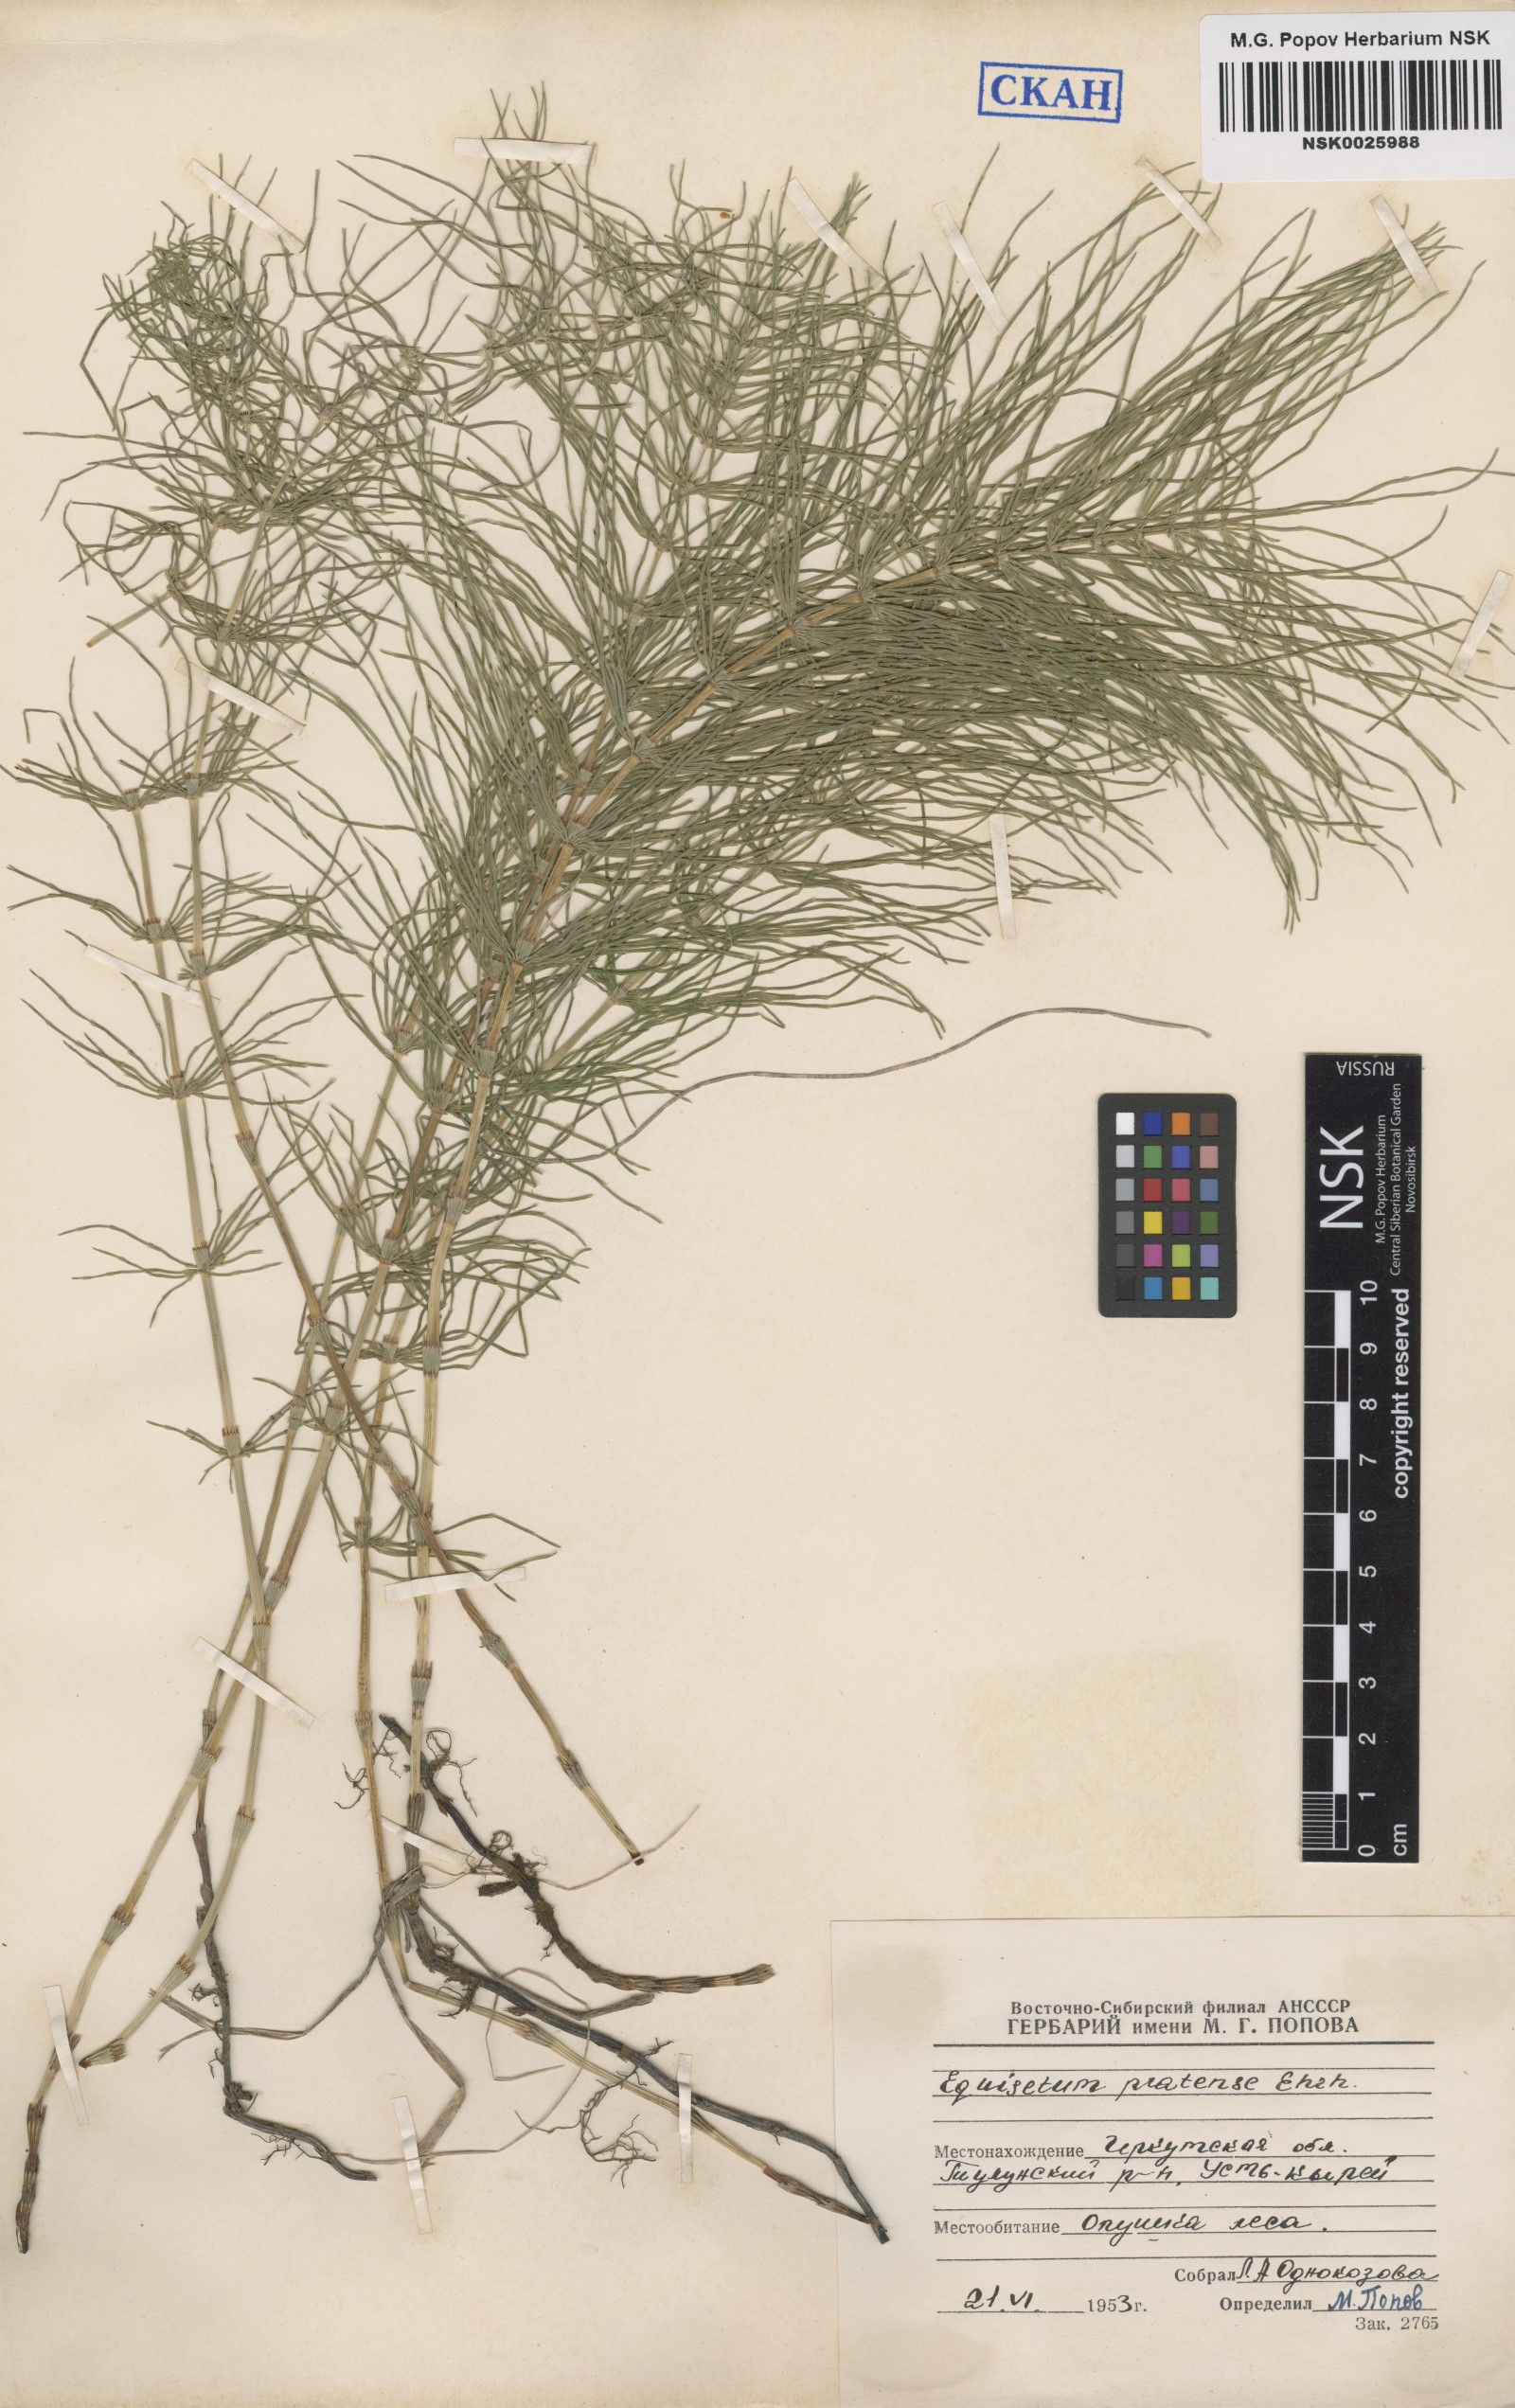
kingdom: Plantae
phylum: Tracheophyta
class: Polypodiopsida
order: Equisetales
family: Equisetaceae
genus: Equisetum
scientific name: Equisetum pratense
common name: Meadow horsetail
